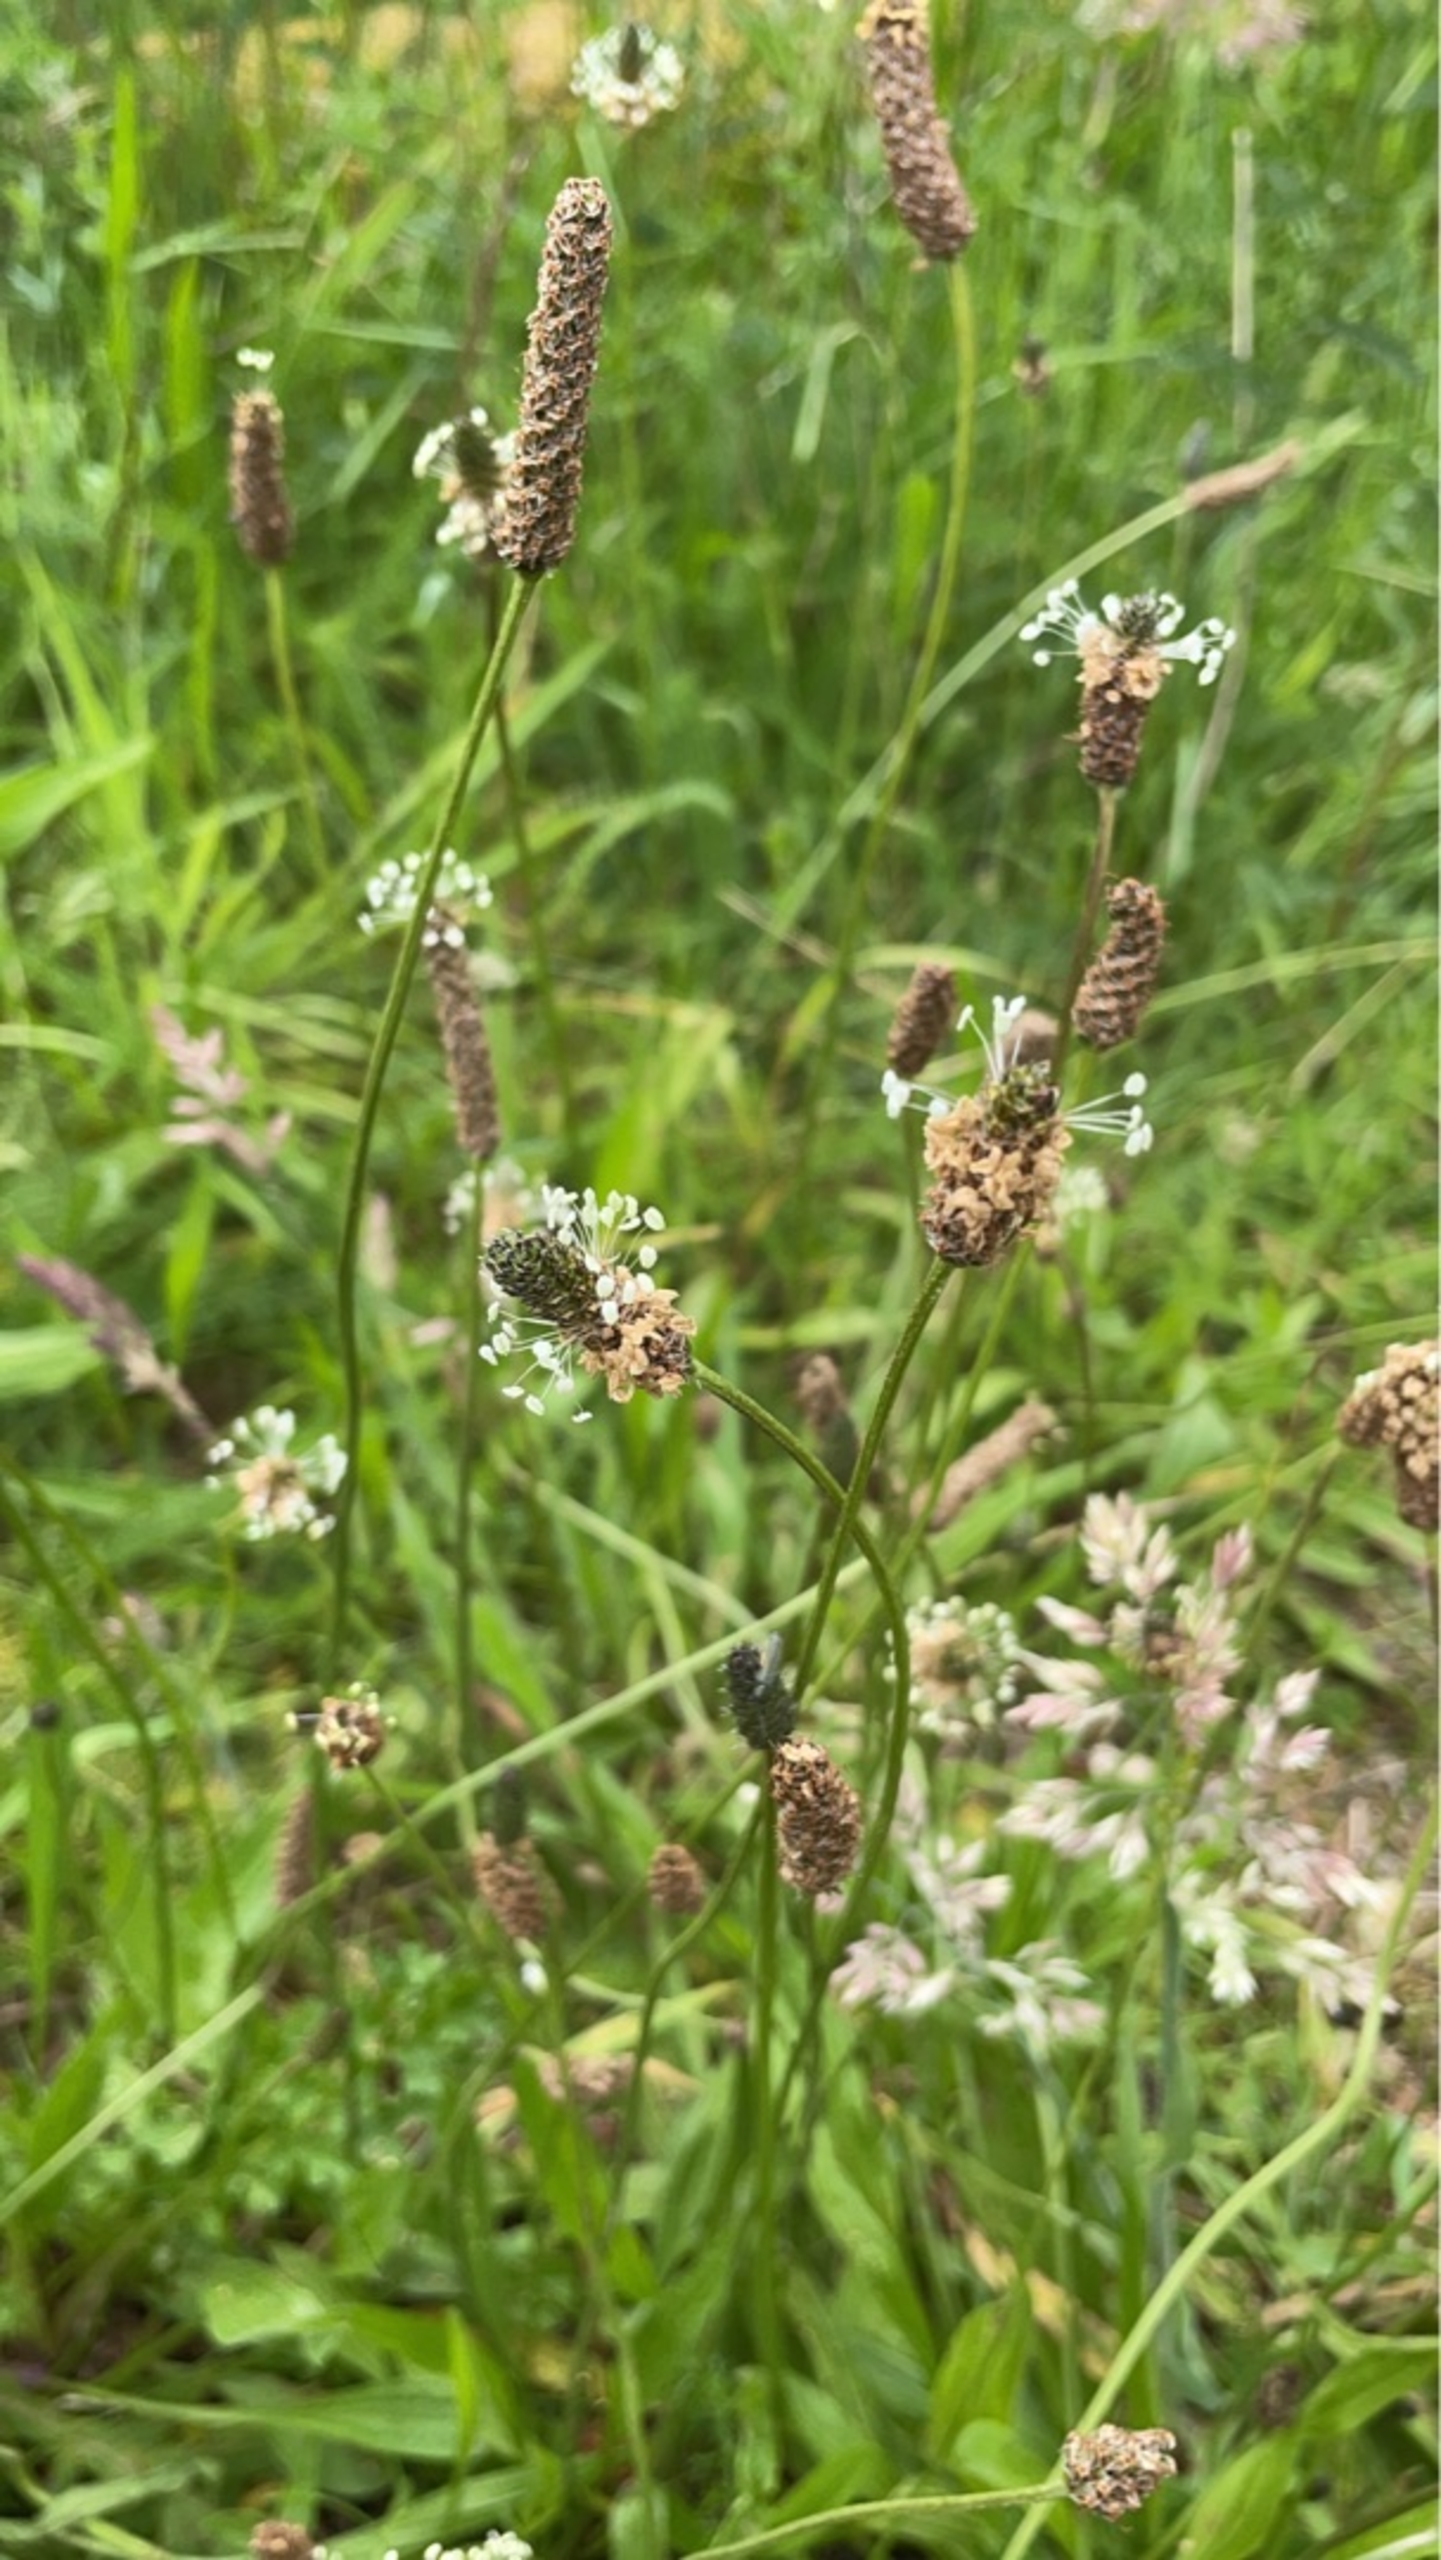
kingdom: Plantae
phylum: Tracheophyta
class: Magnoliopsida
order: Lamiales
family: Plantaginaceae
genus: Plantago
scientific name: Plantago lanceolata
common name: Lancet-vejbred
